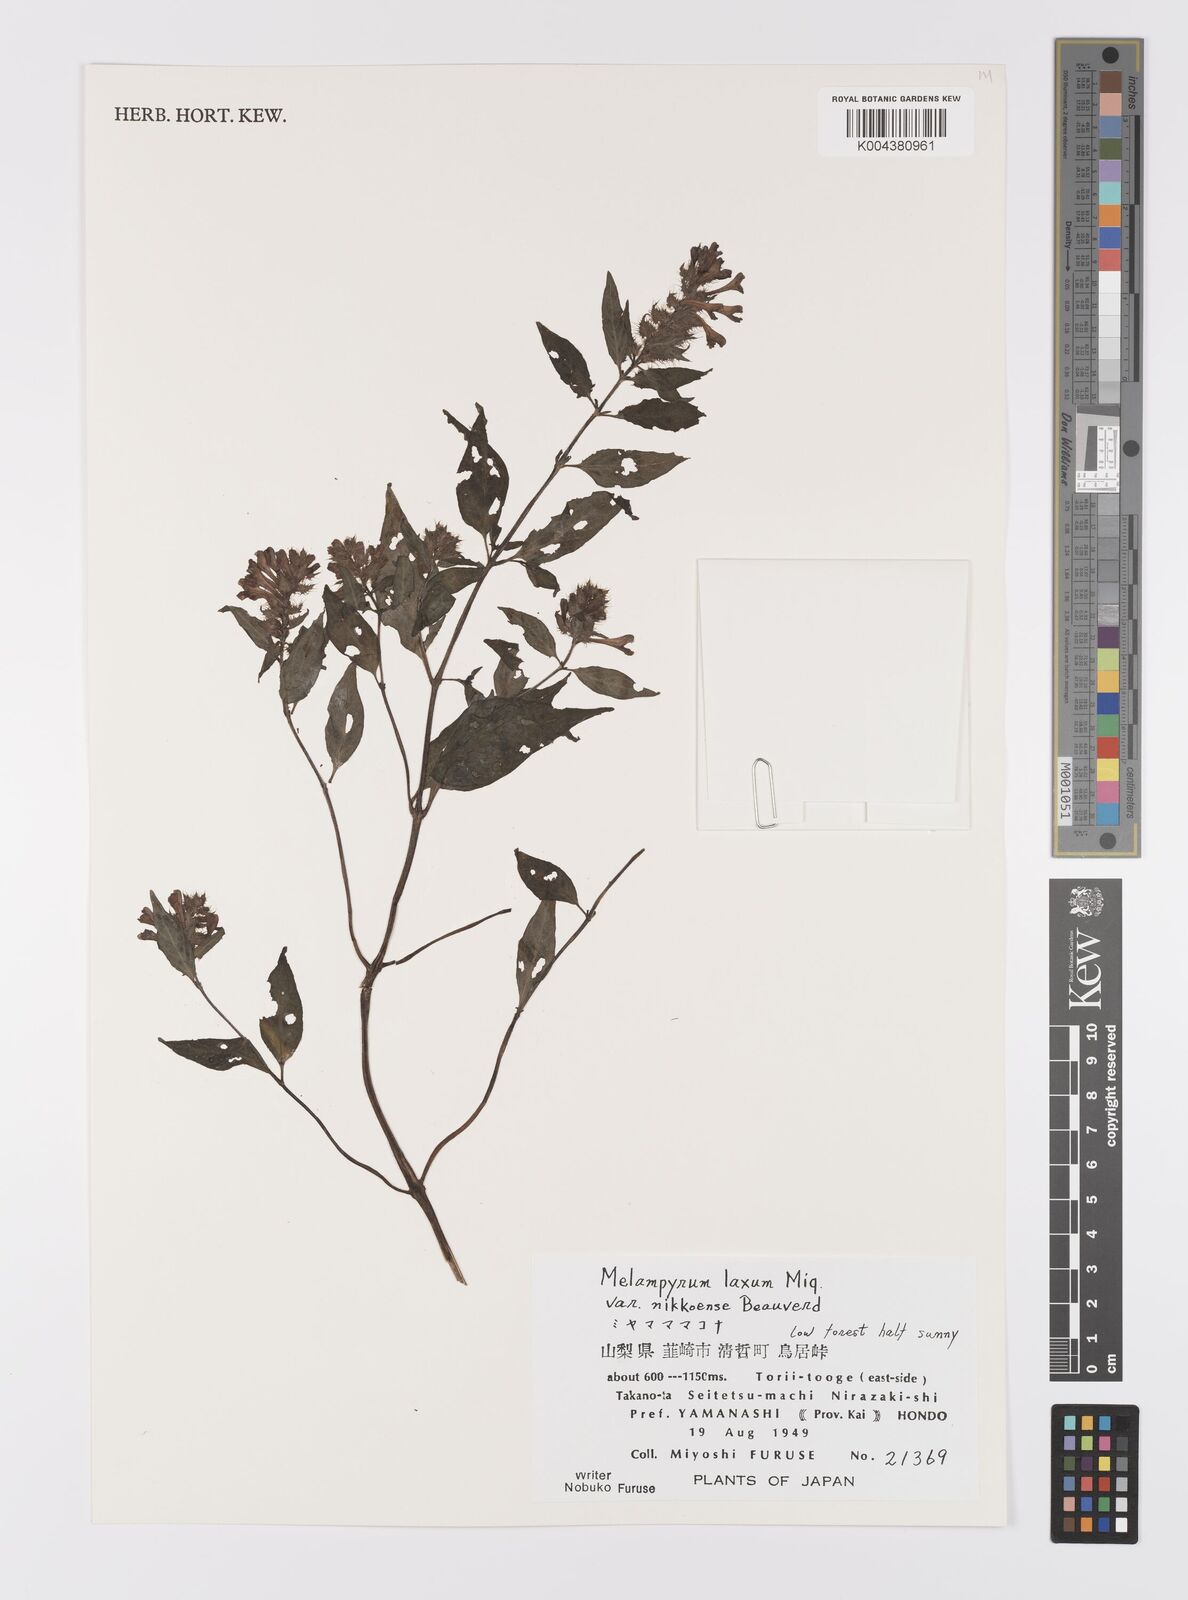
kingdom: Plantae
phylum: Tracheophyta
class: Magnoliopsida
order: Lamiales
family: Orobanchaceae
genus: Melampyrum
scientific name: Melampyrum laxum
